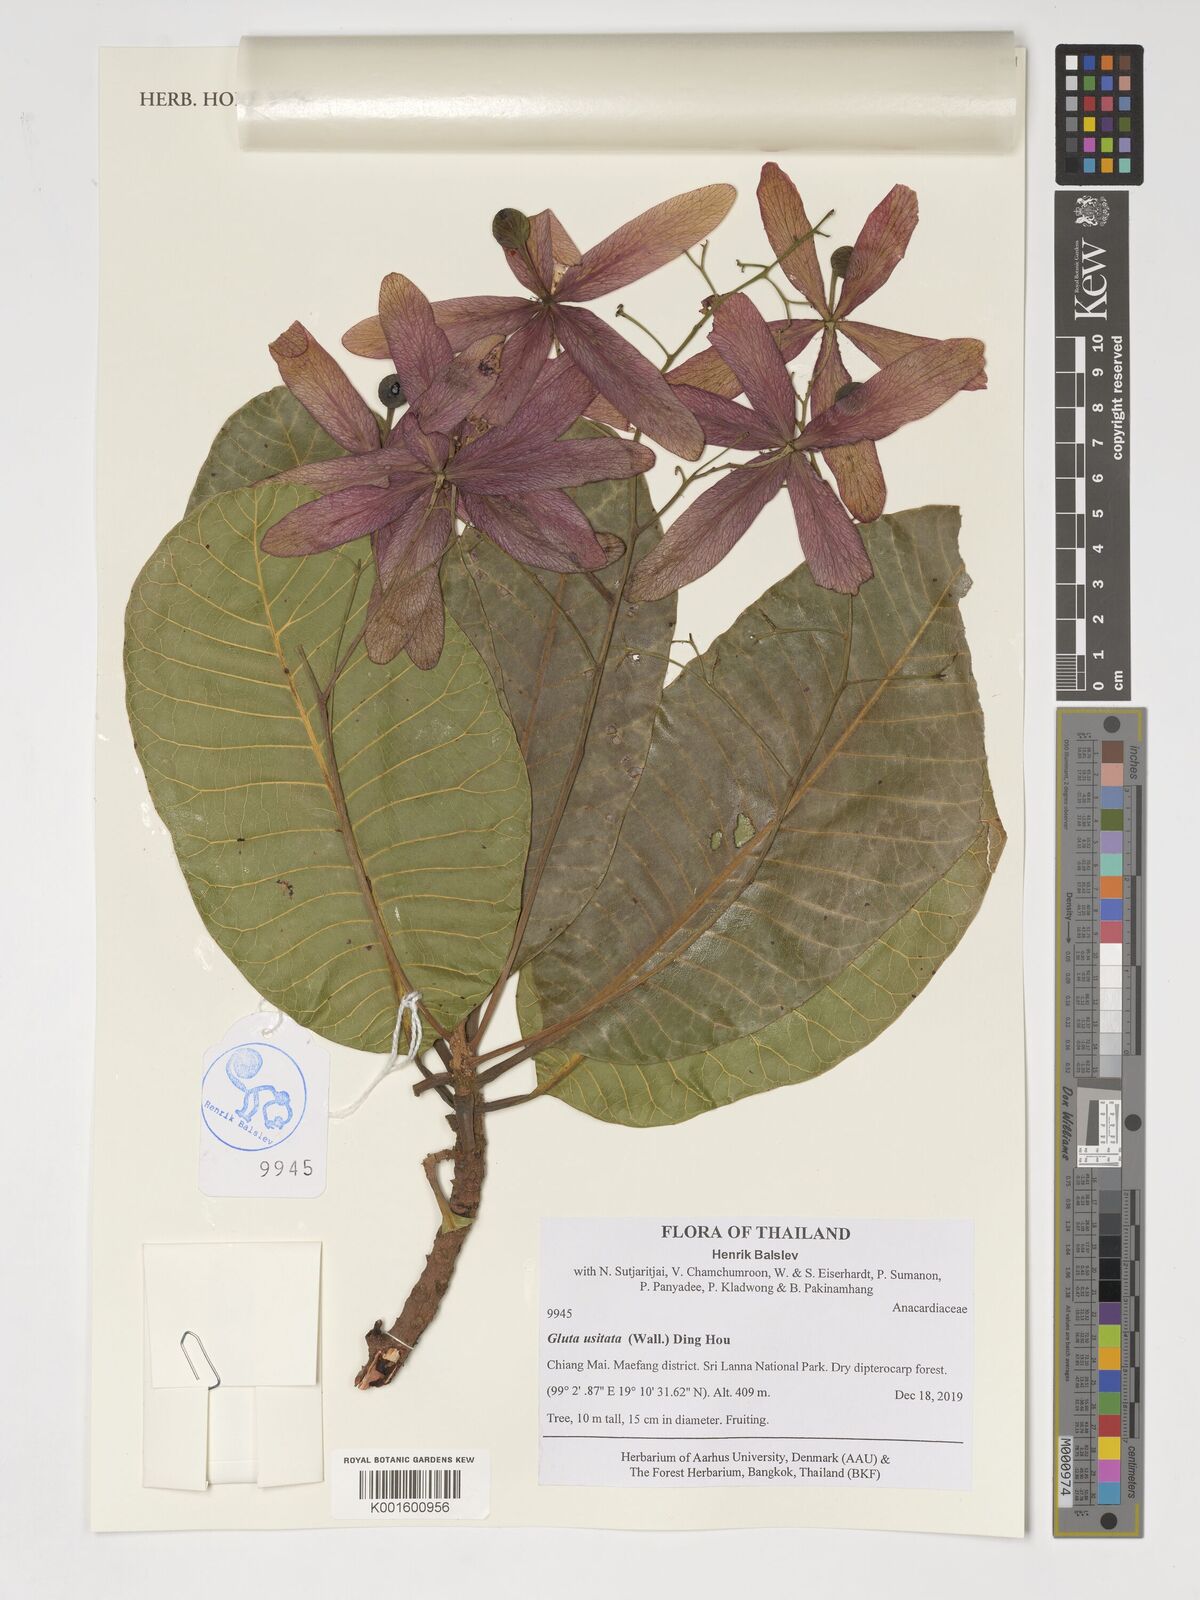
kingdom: Plantae
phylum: Tracheophyta
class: Magnoliopsida
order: Sapindales
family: Anacardiaceae
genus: Gluta
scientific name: Gluta usitata
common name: Black varnishtree
